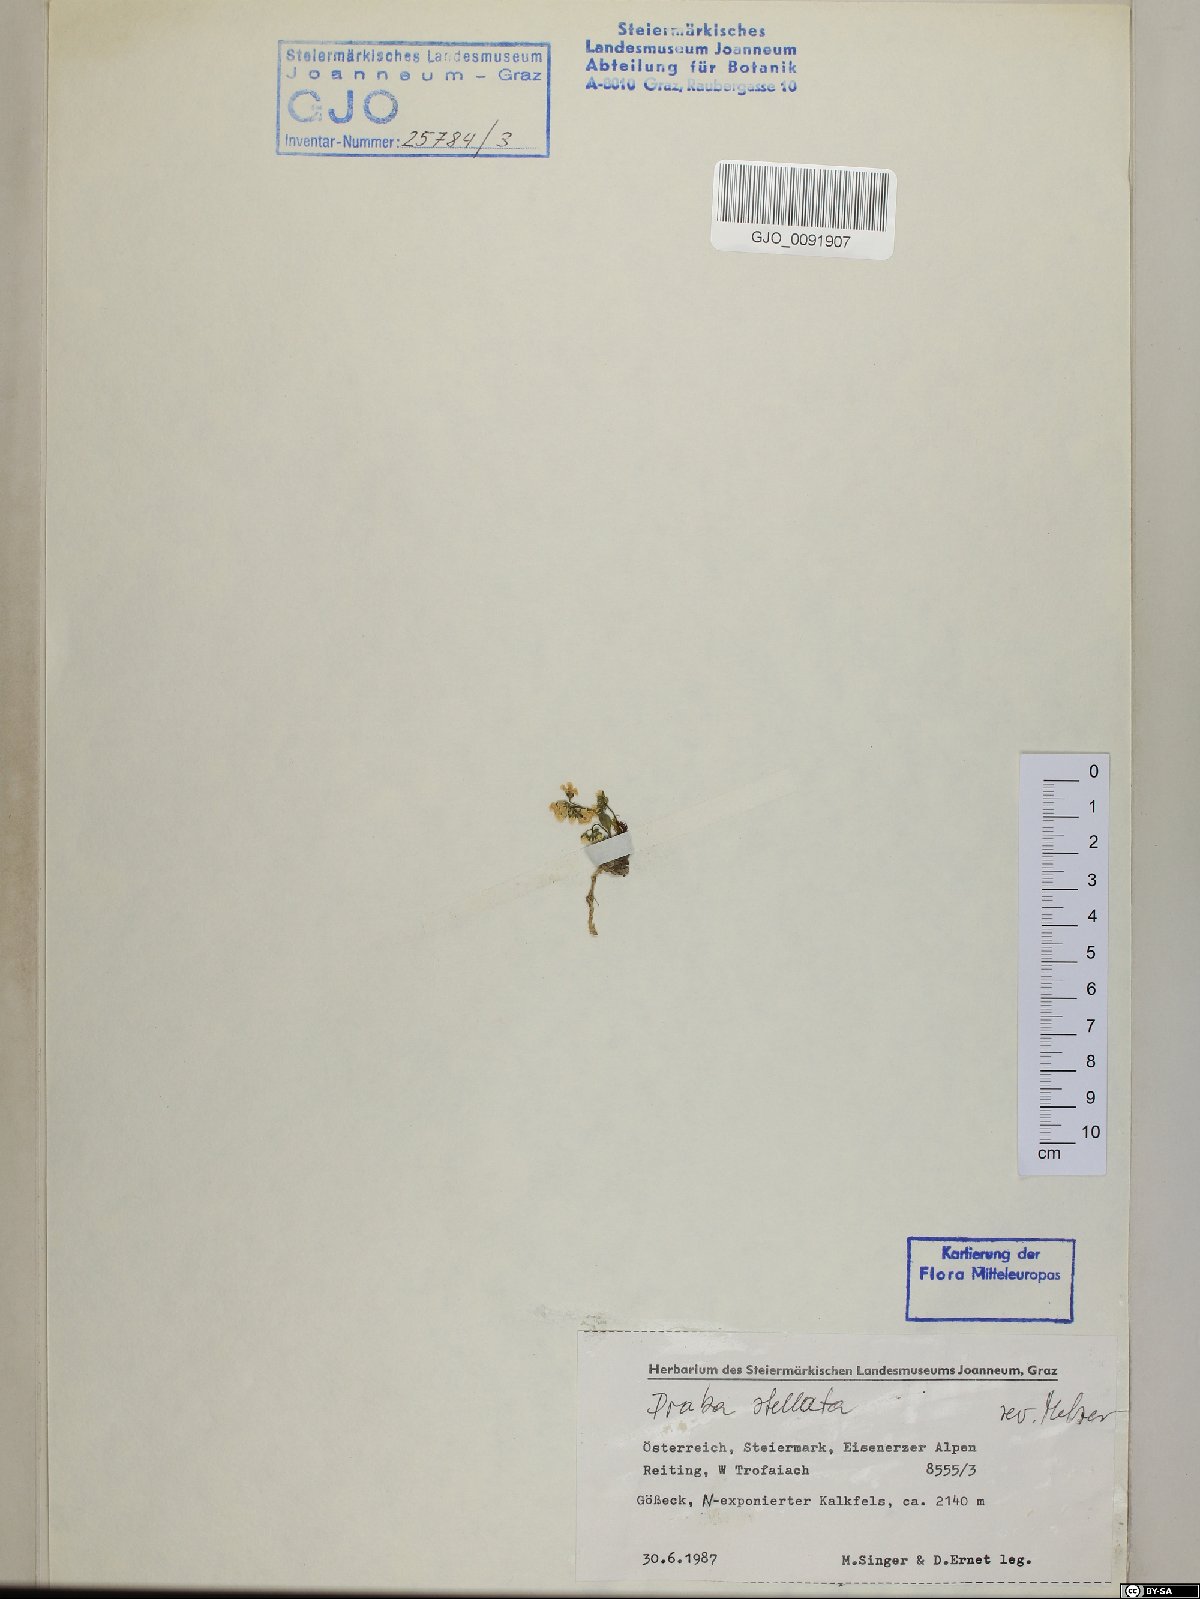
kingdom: Plantae
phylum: Tracheophyta
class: Magnoliopsida
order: Brassicales
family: Brassicaceae
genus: Draba
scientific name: Draba stellata
